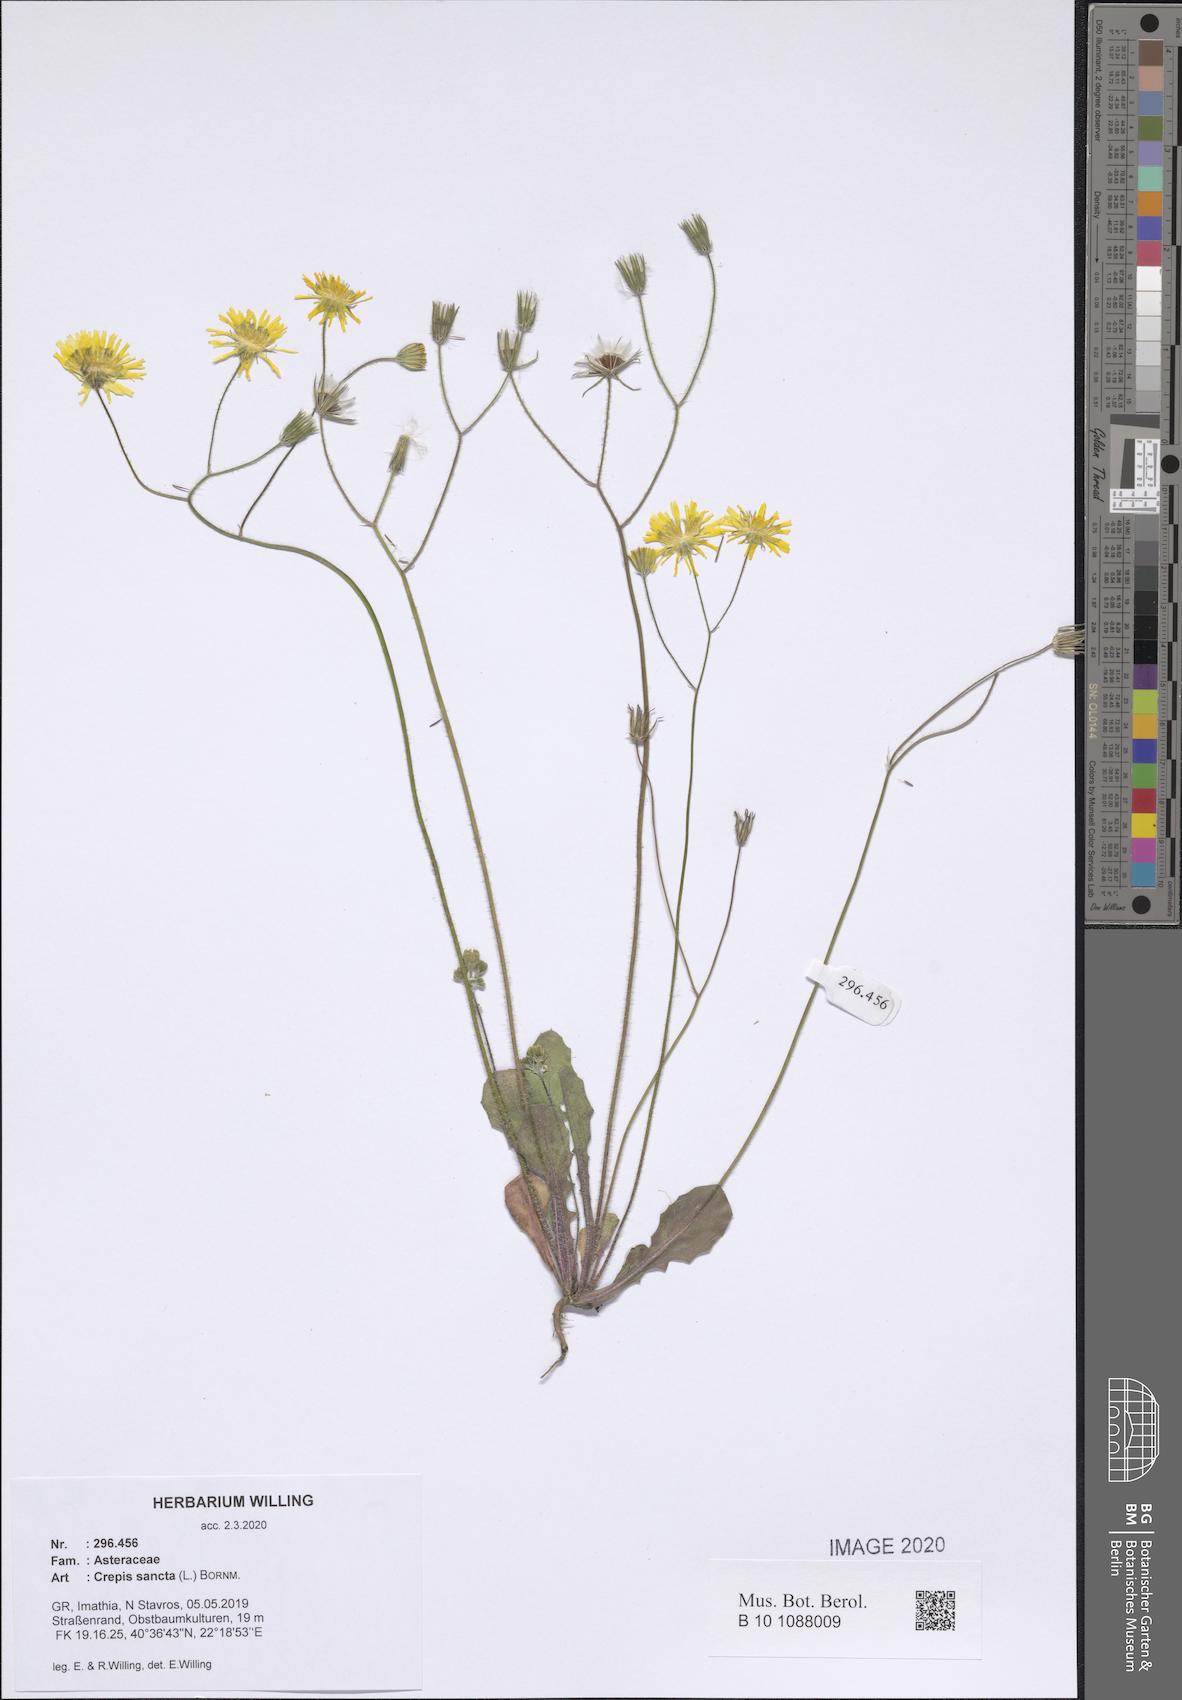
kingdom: Plantae
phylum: Tracheophyta
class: Magnoliopsida
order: Asterales
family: Asteraceae
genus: Crepis
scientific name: Crepis sancta
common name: Hawk's-beard
